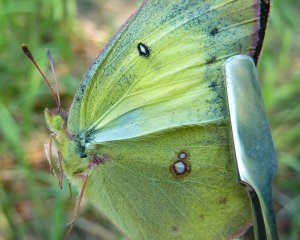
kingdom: Animalia
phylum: Arthropoda
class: Insecta
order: Lepidoptera
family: Pieridae
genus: Colias
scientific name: Colias philodice
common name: Clouded Sulphur
